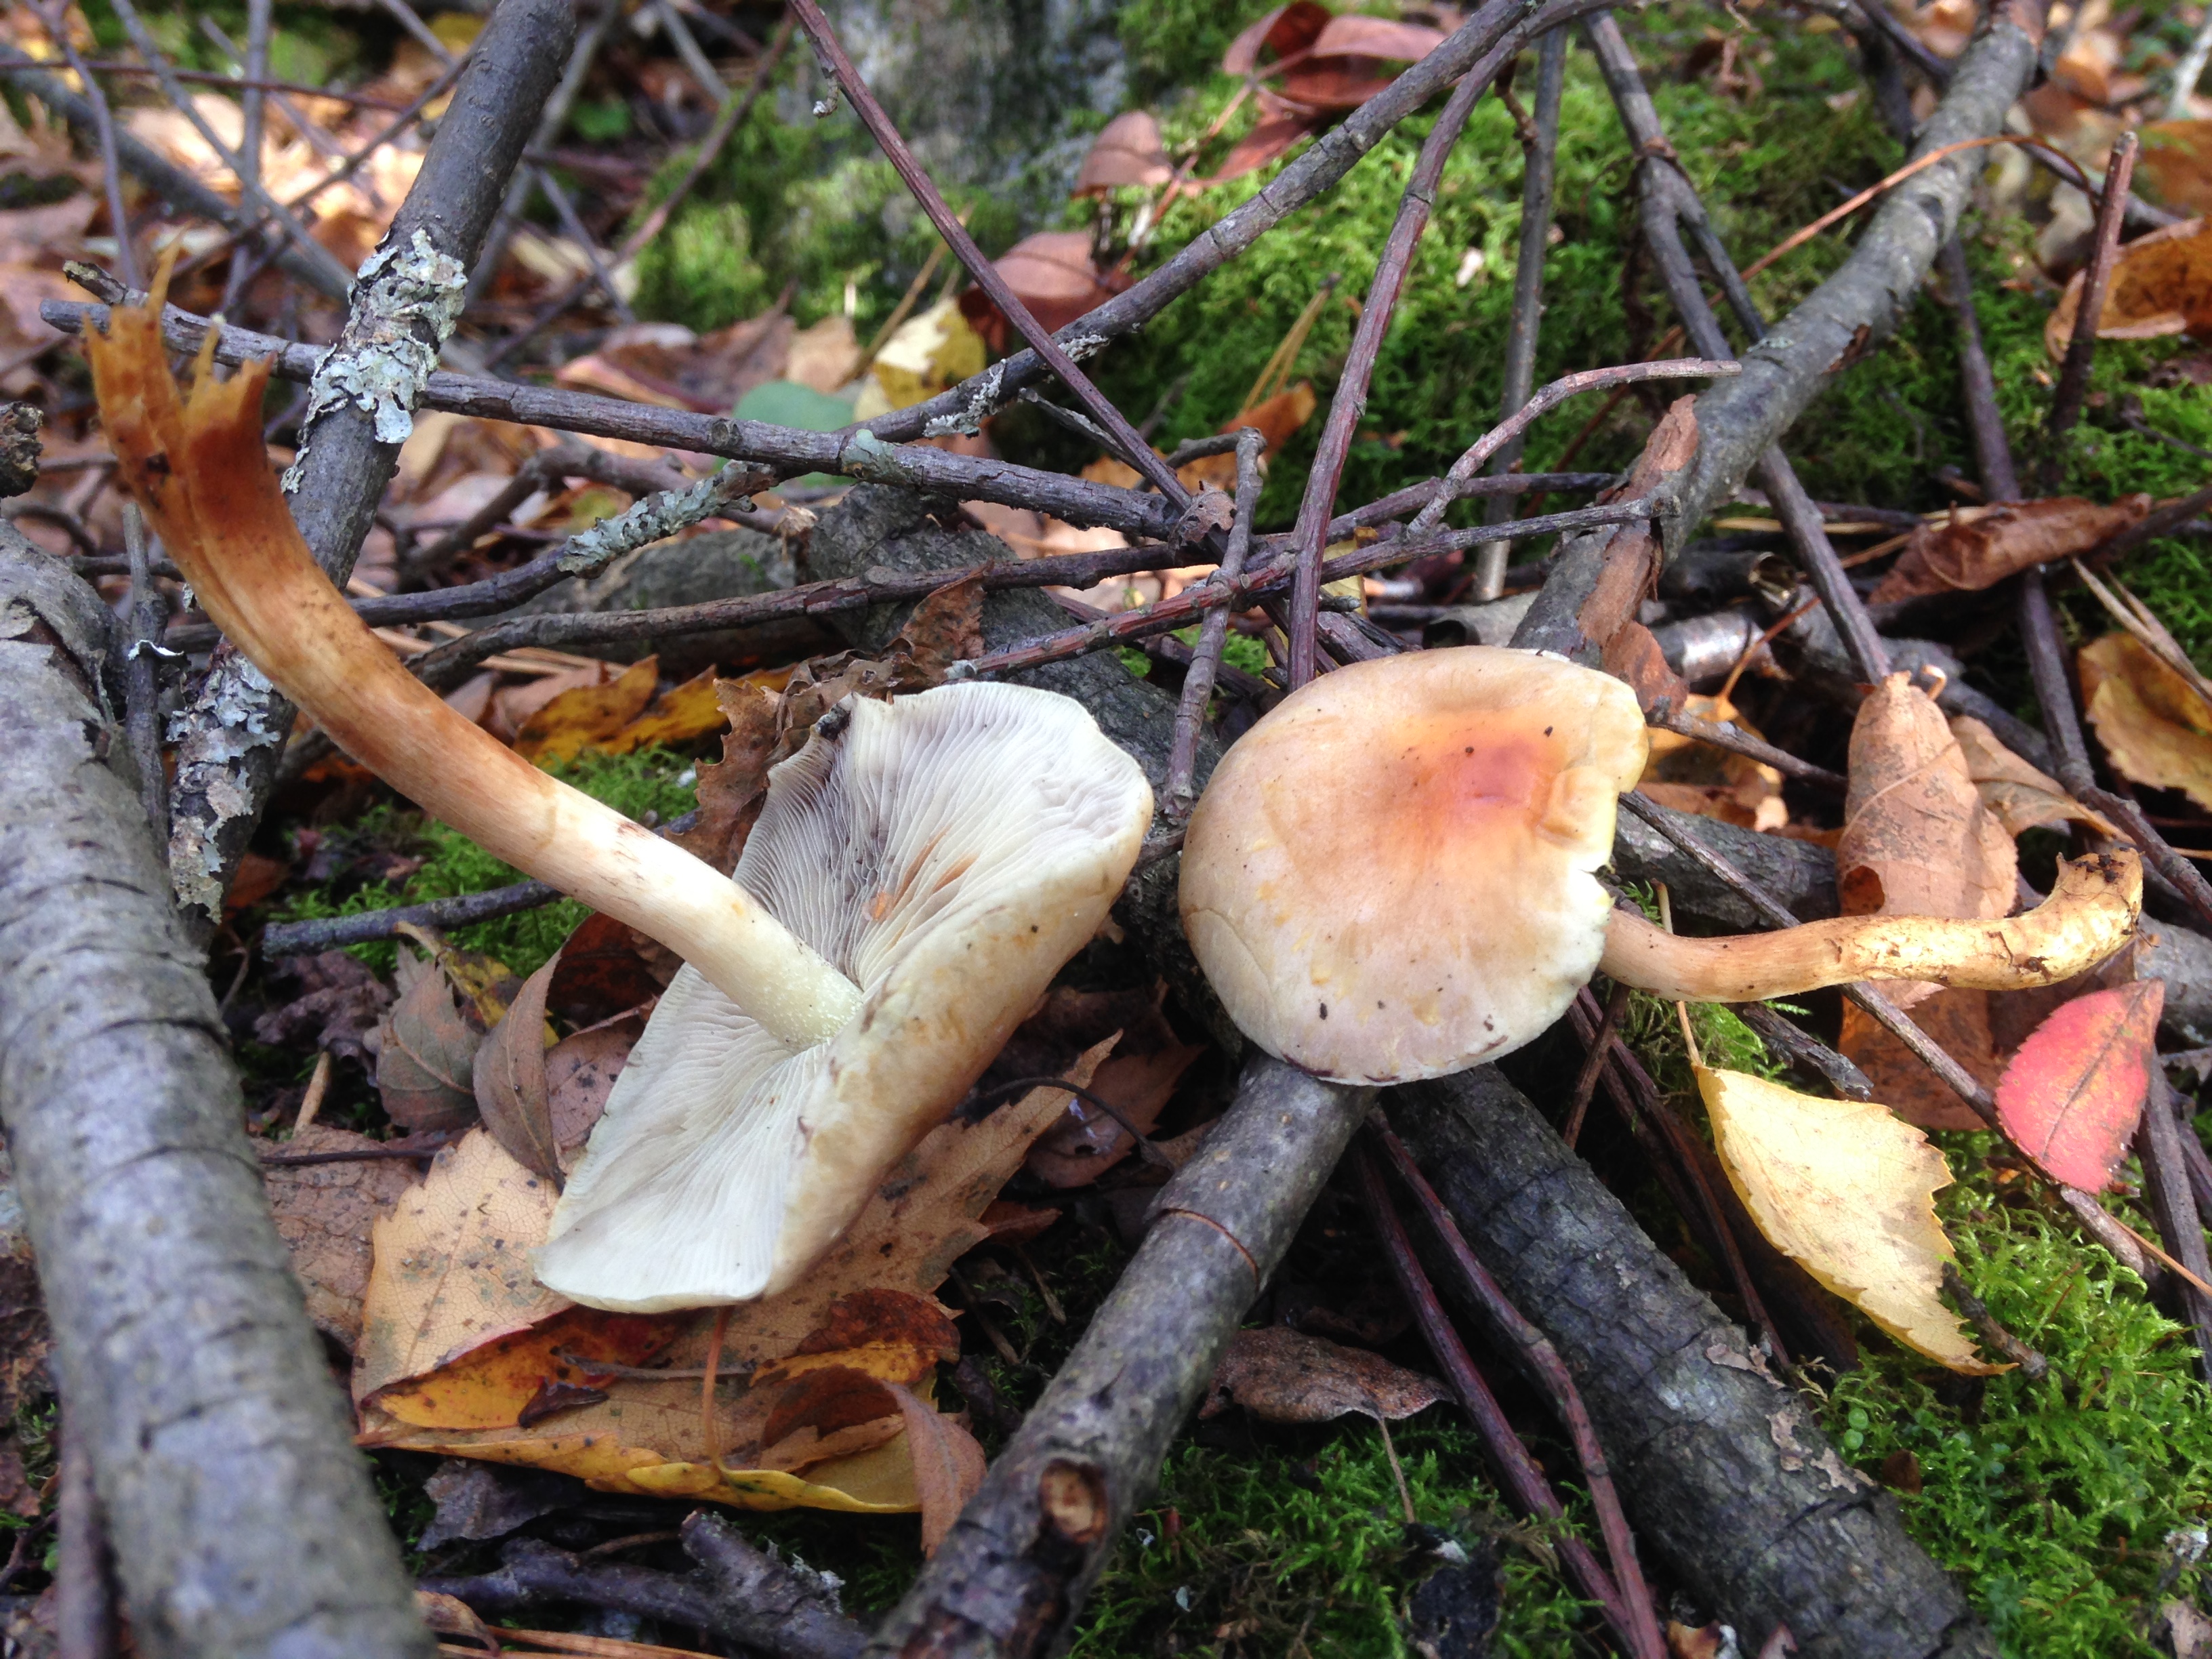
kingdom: Fungi
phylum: Basidiomycota
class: Agaricomycetes
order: Agaricales
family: Strophariaceae
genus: Hypholoma
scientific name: Hypholoma fasciculare
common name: Sulphur tuft
